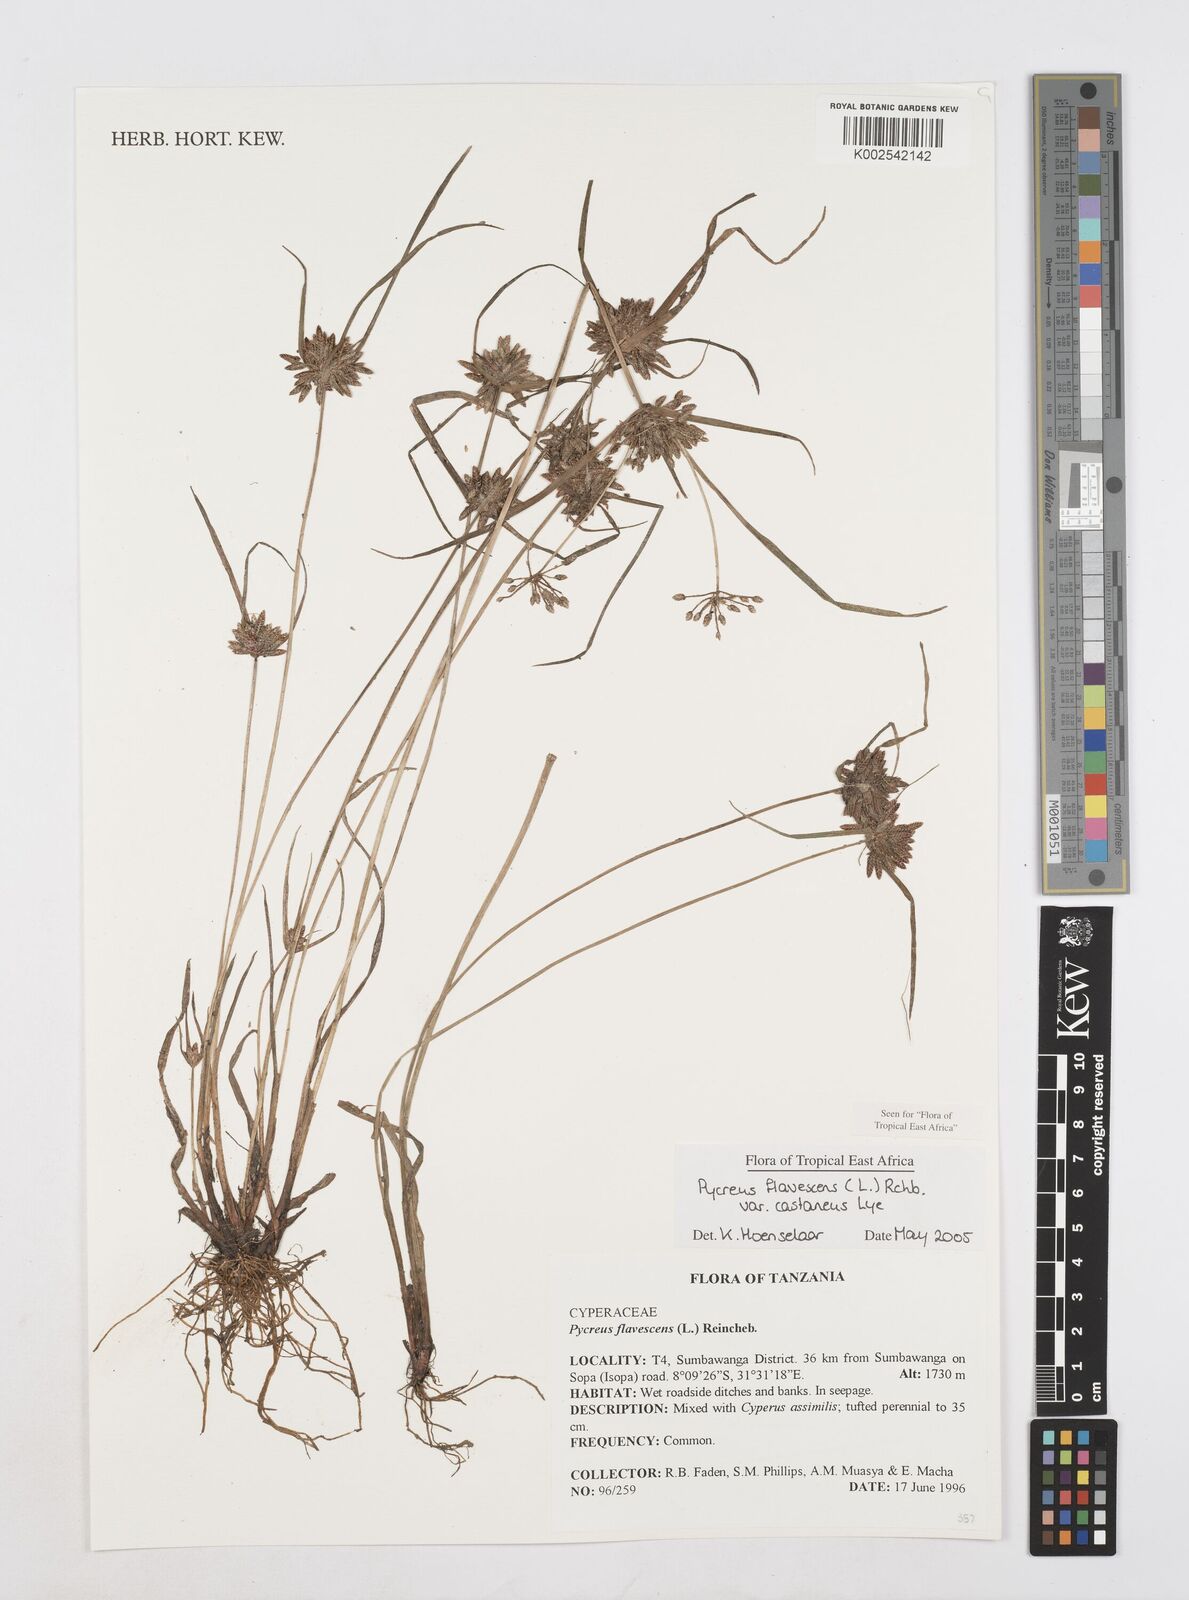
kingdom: Plantae
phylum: Tracheophyta
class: Liliopsida
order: Poales
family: Cyperaceae
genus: Cyperus
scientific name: Cyperus flavescens
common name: Yellow galingale
